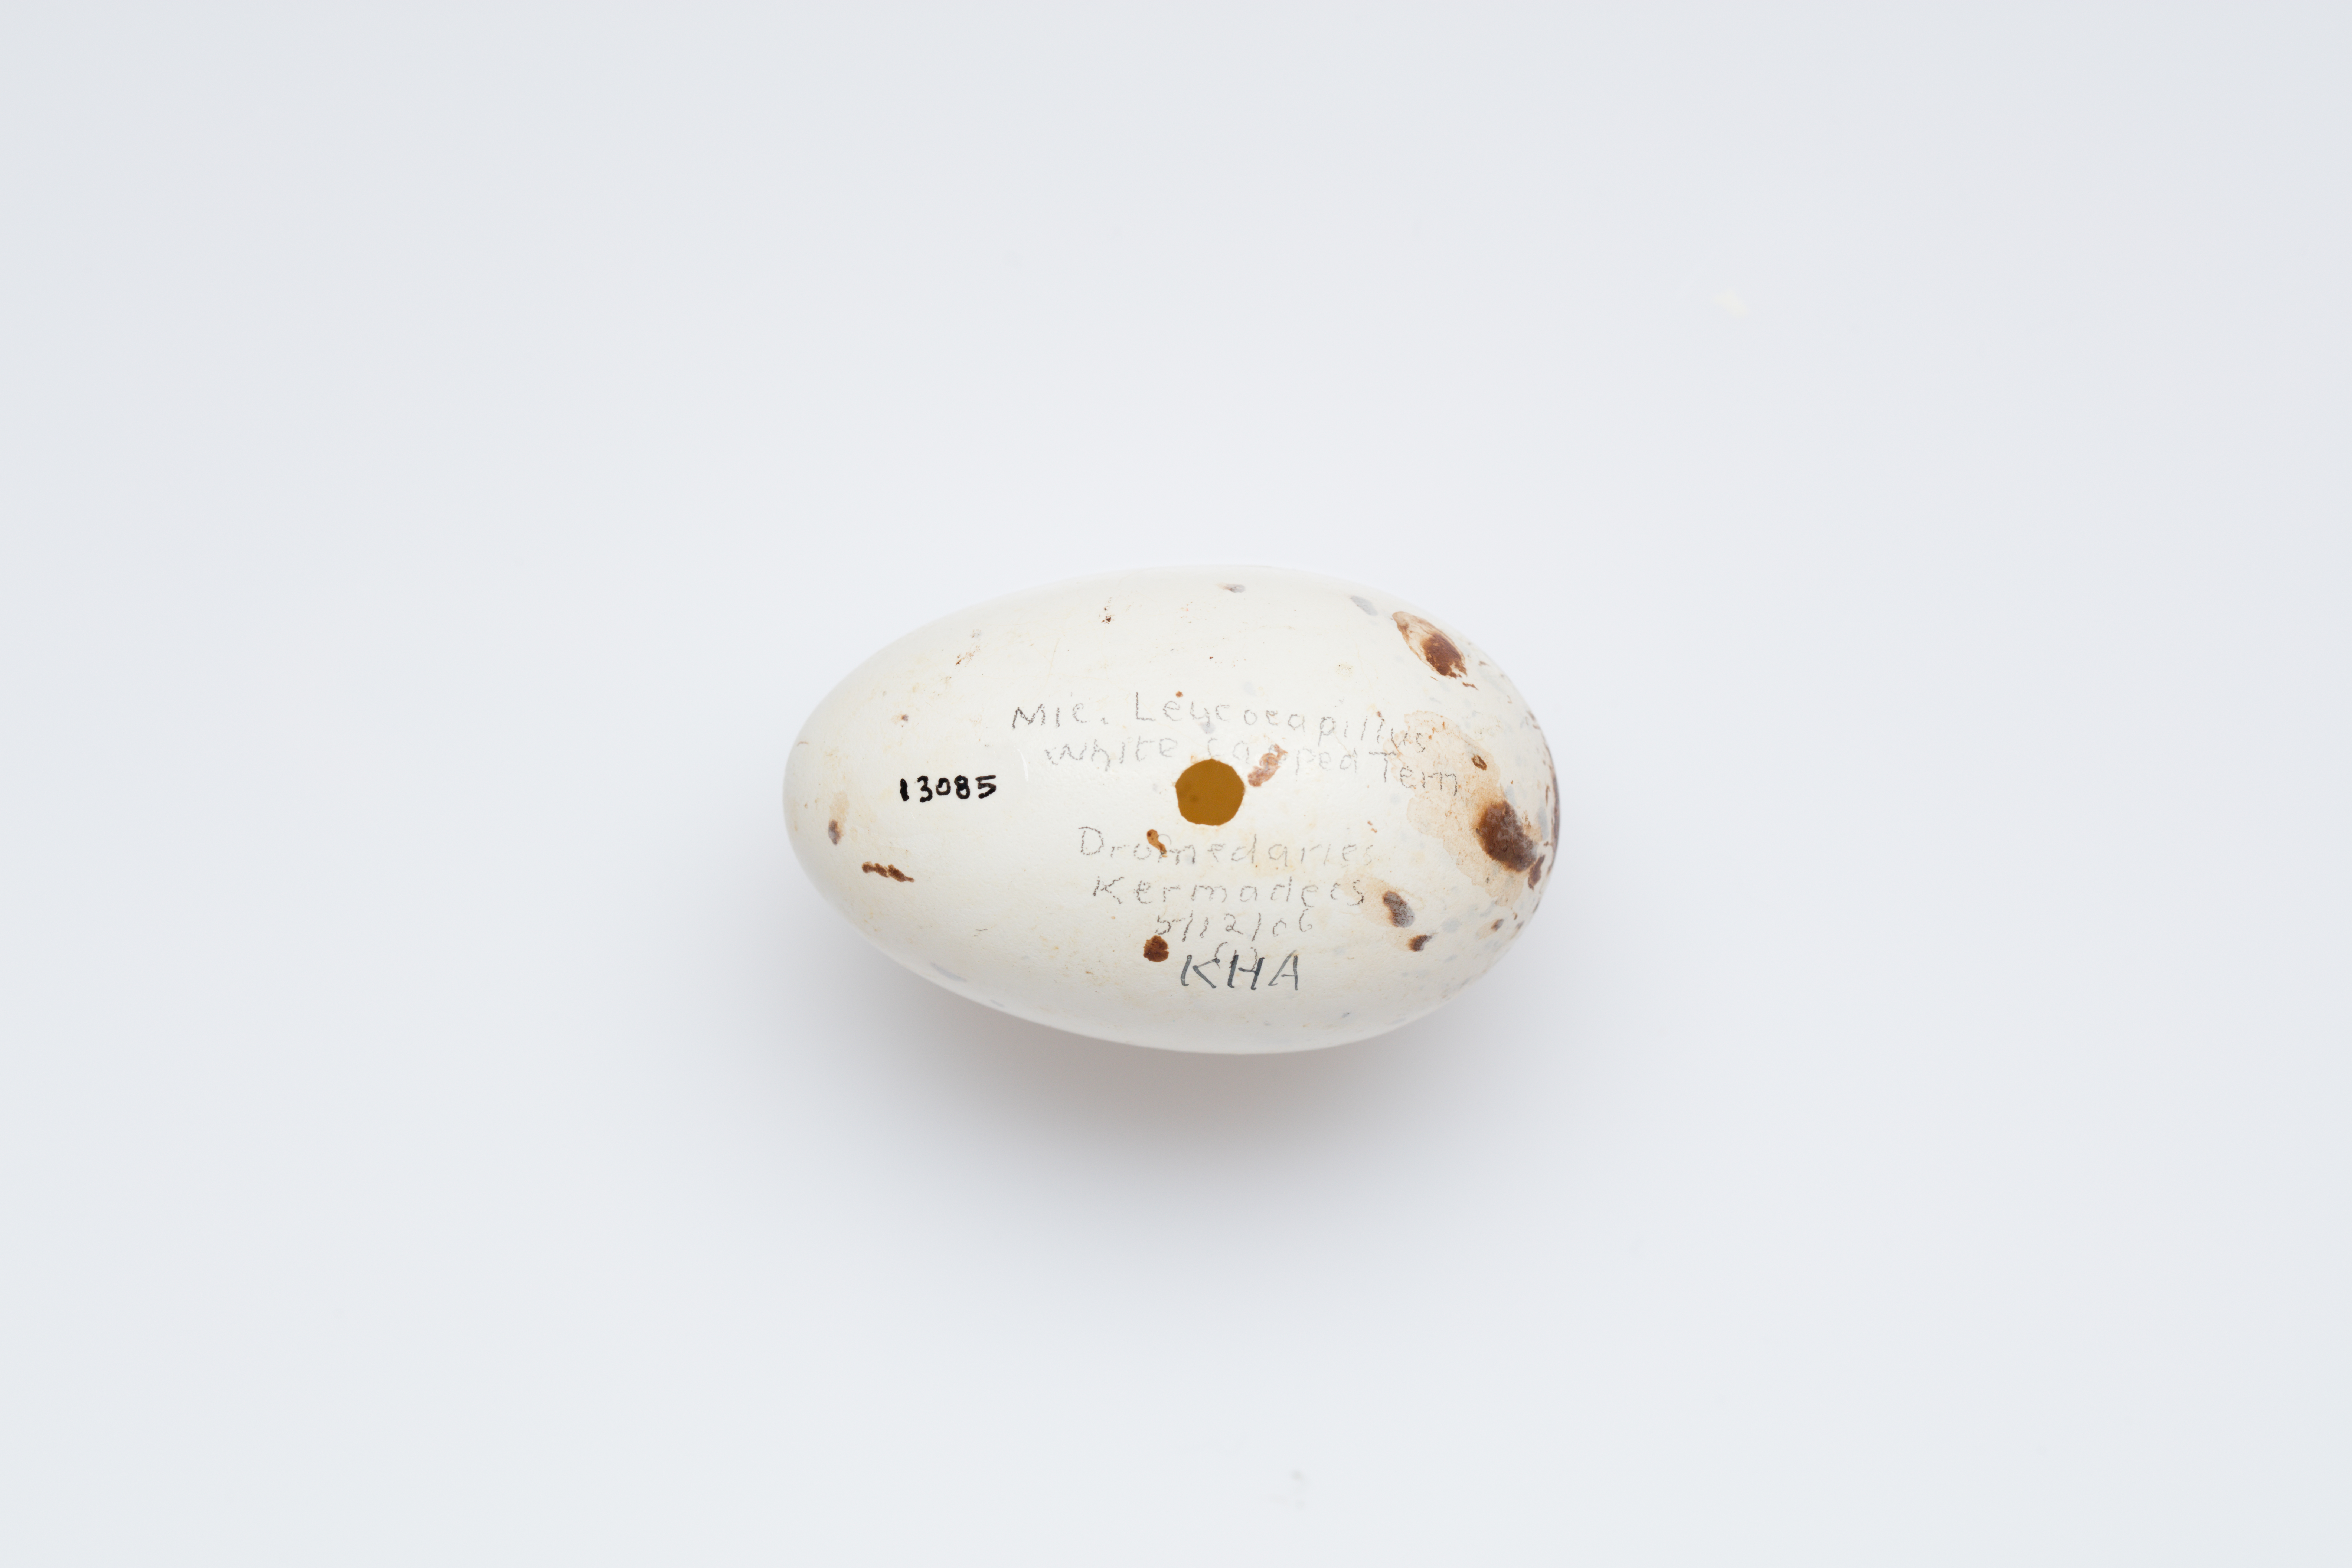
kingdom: Animalia
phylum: Chordata
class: Aves
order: Charadriiformes
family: Laridae
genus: Anous
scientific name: Anous minutus
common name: Black noddy
